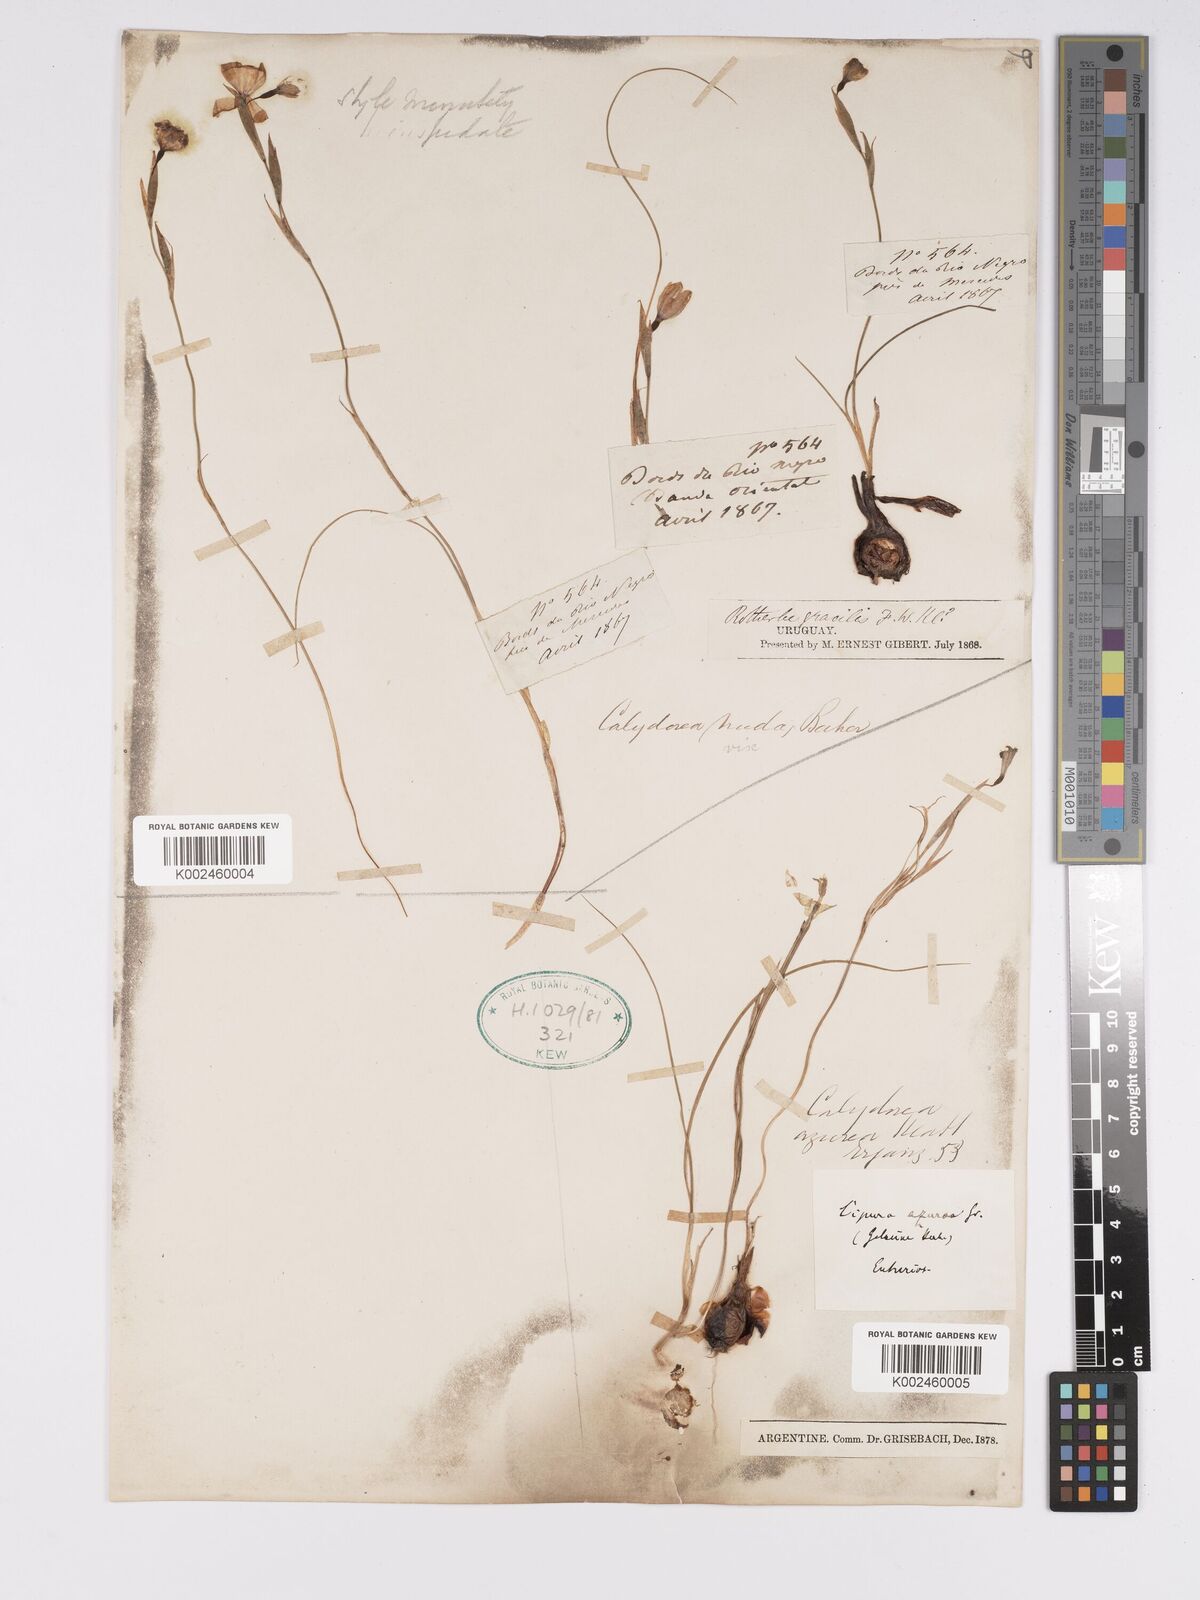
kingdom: Plantae
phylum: Tracheophyta
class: Liliopsida
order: Asparagales
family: Iridaceae
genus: Calydorea
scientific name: Calydorea nuda
